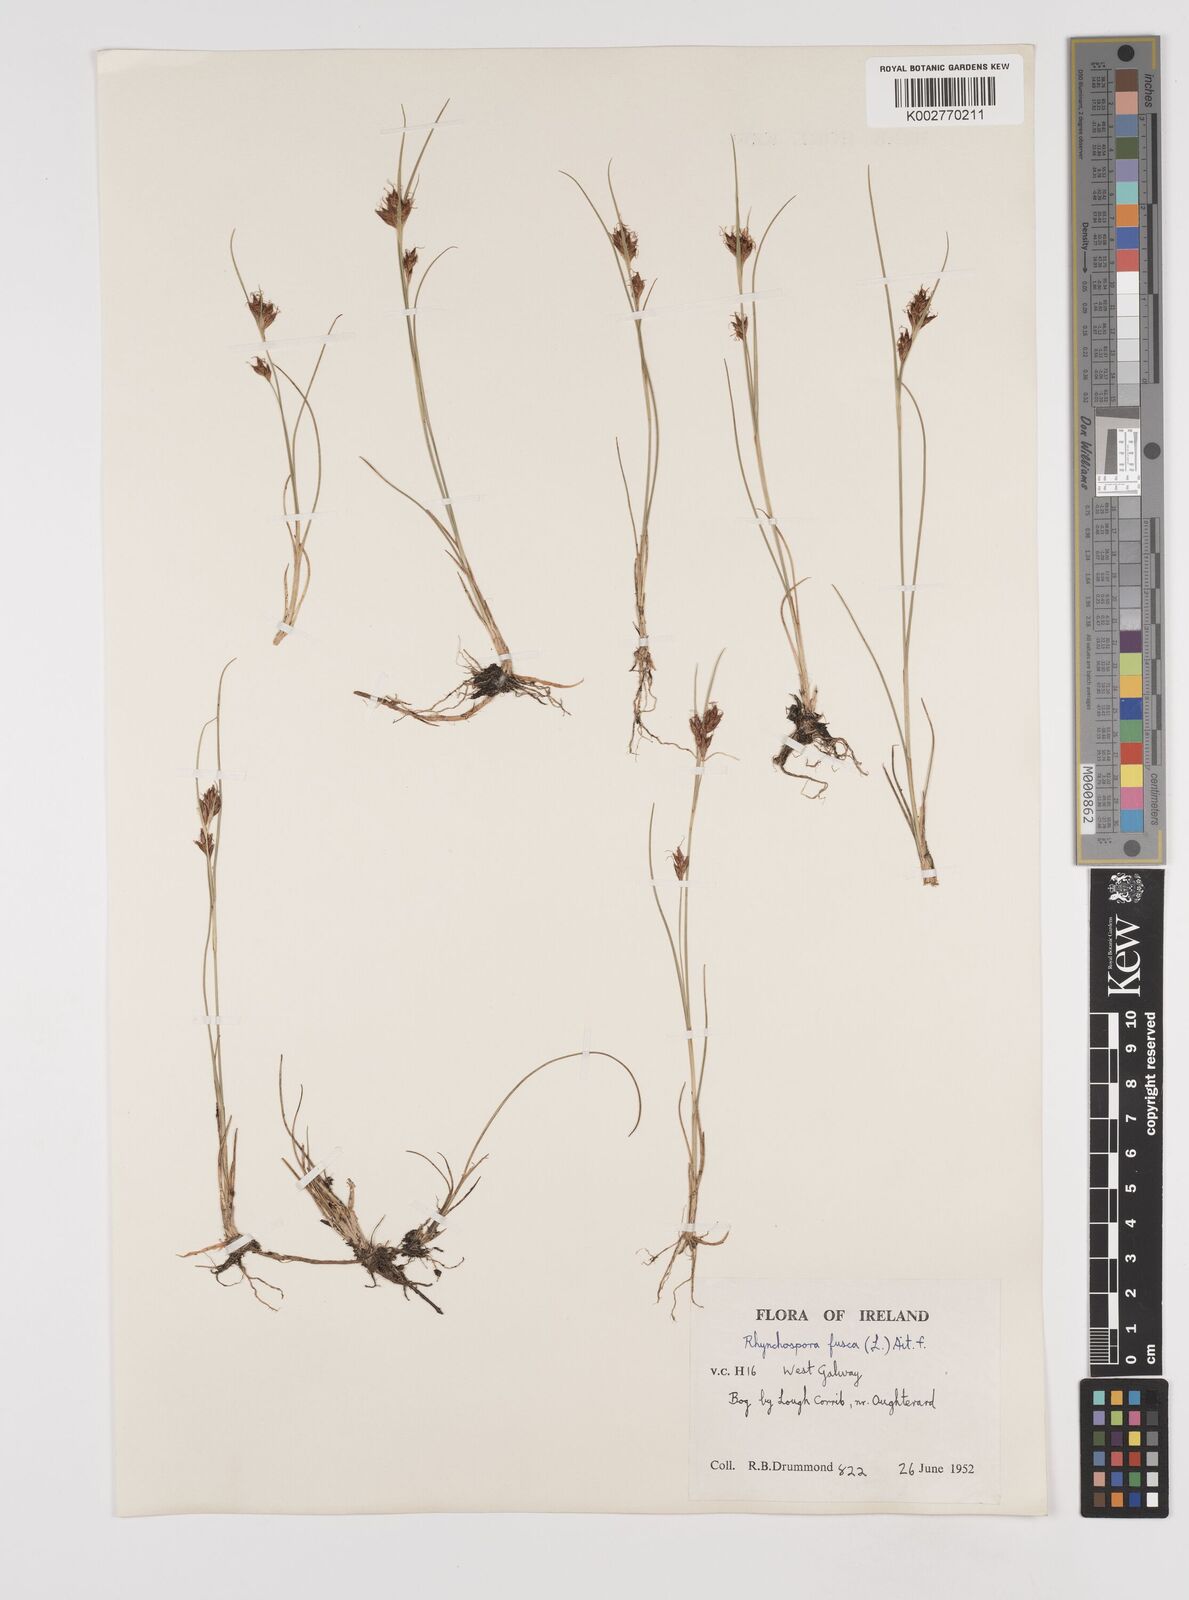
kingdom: Plantae
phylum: Tracheophyta
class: Liliopsida
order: Poales
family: Cyperaceae
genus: Rhynchospora
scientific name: Rhynchospora fusca
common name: Brown beak-sedge
